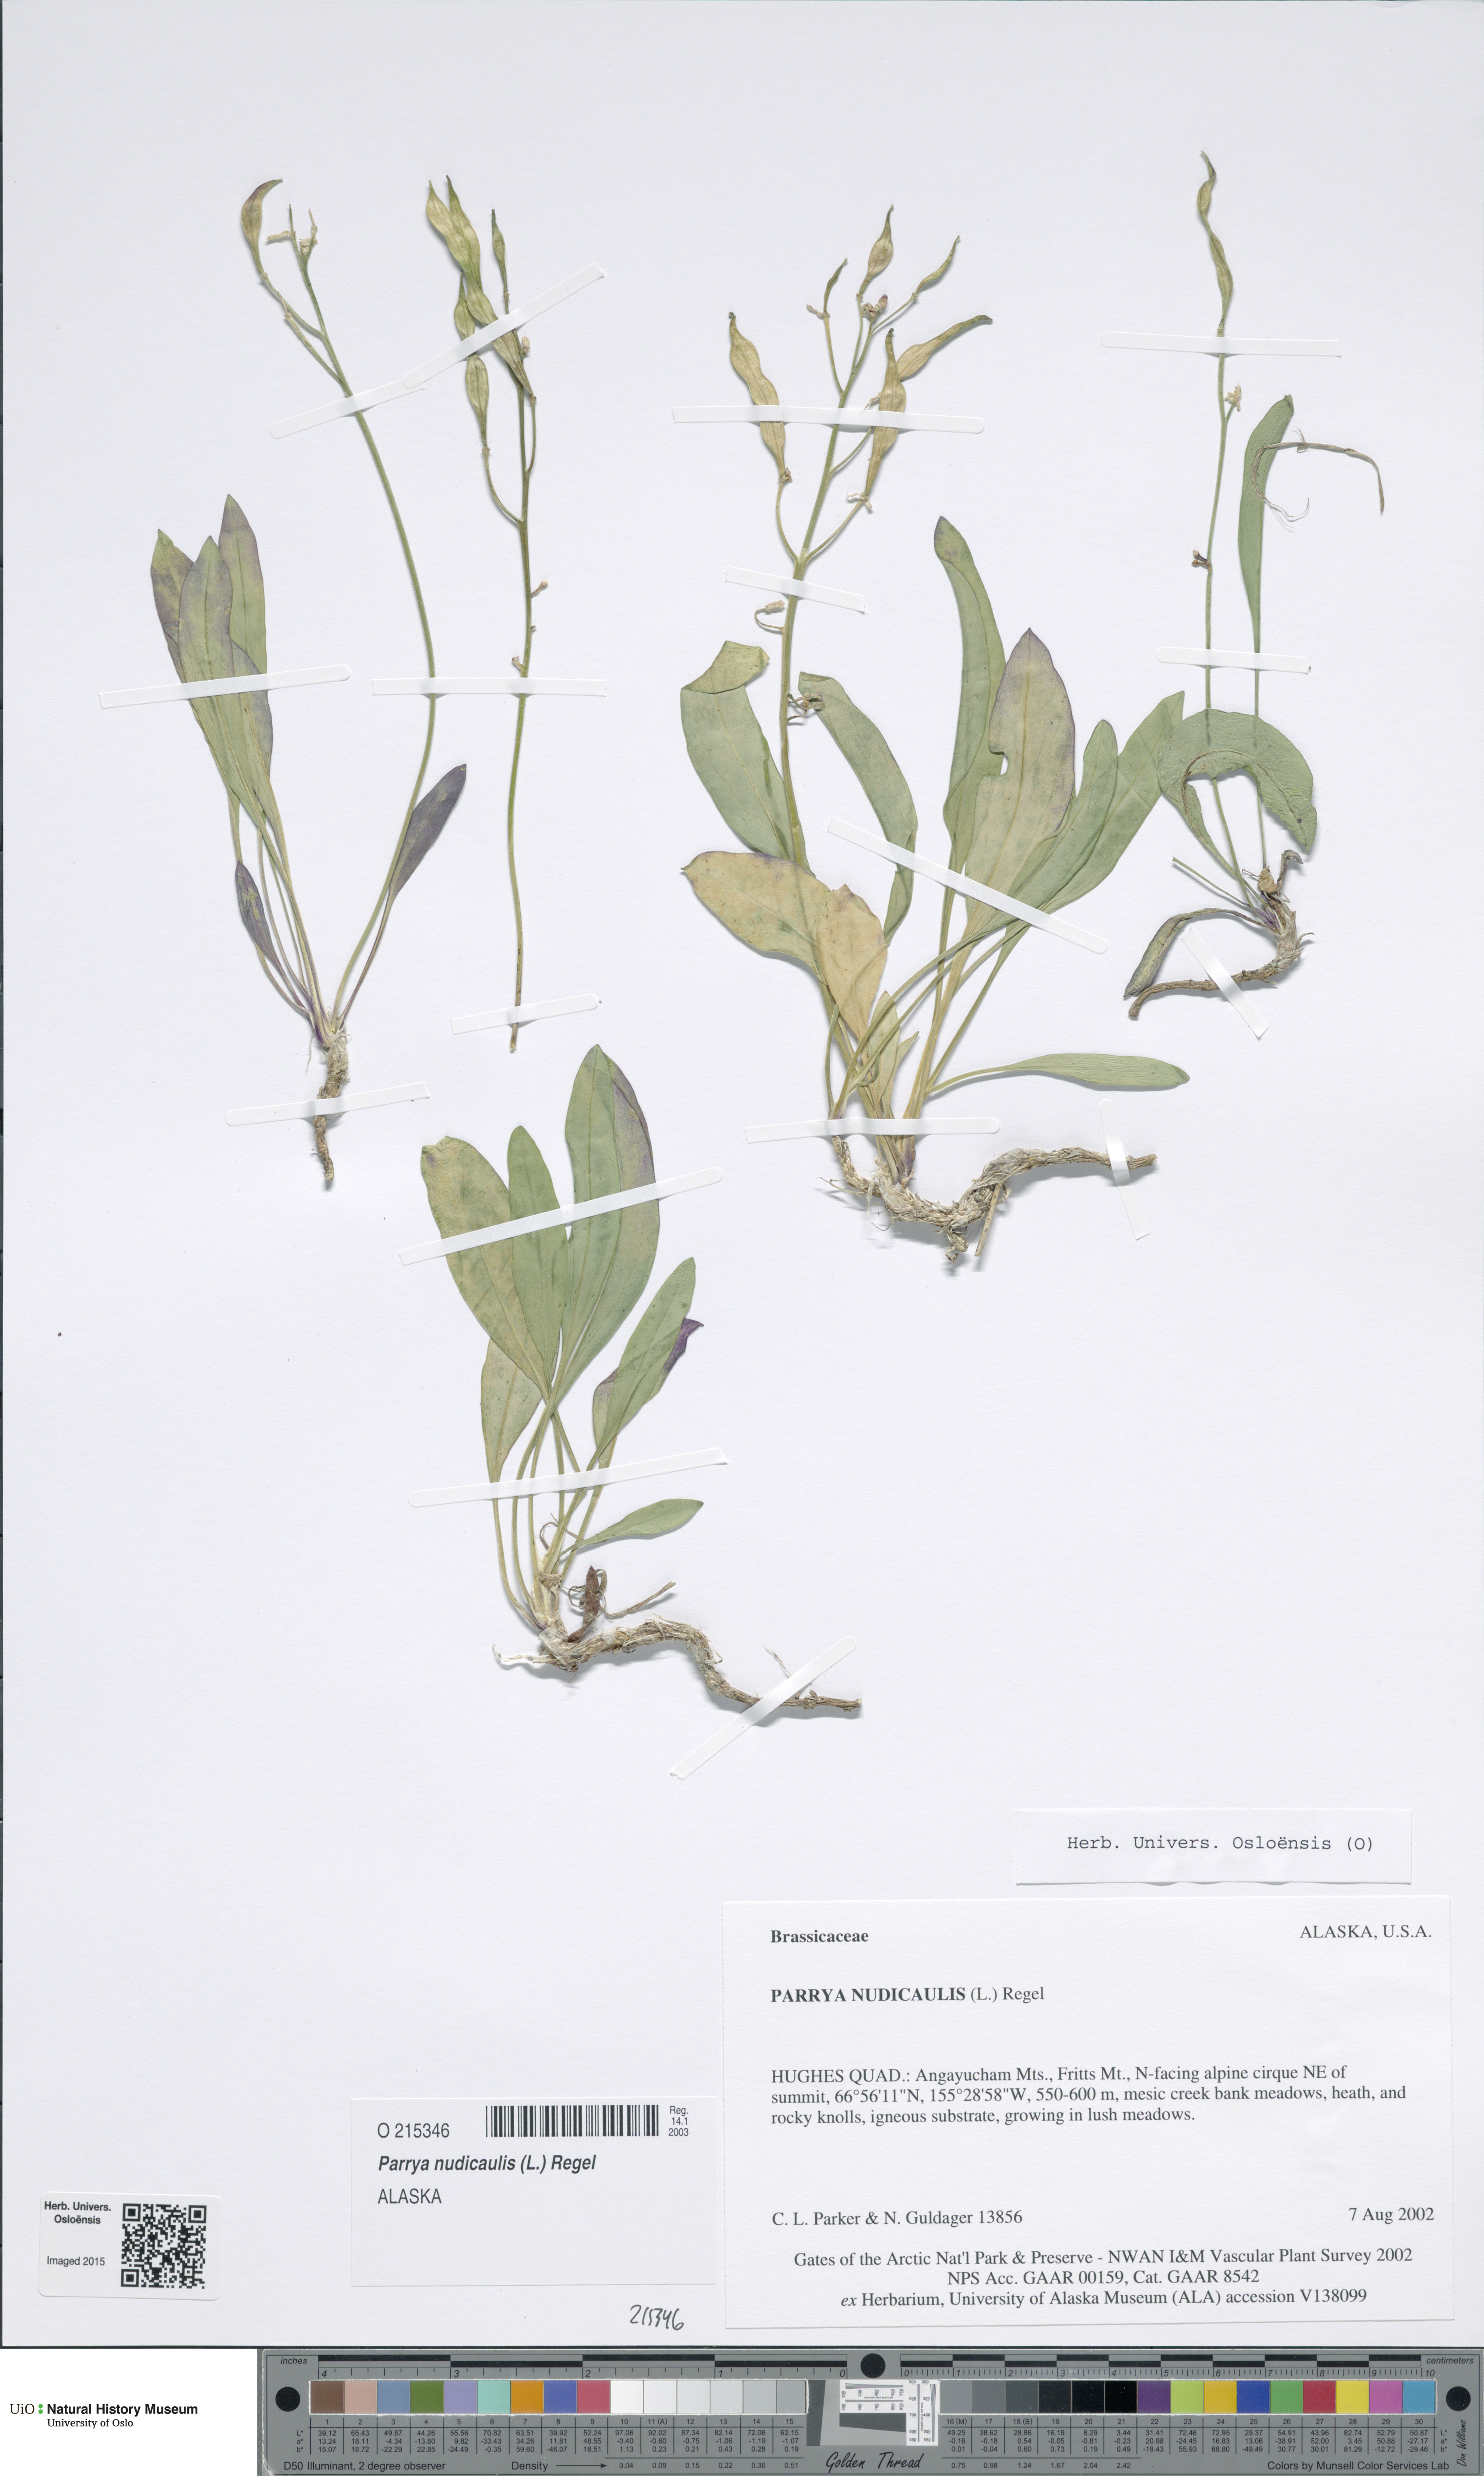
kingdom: Plantae
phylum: Tracheophyta
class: Magnoliopsida
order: Brassicales
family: Brassicaceae
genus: Parrya
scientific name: Parrya nudicaulis
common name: Naked-stemmed false wallflower
